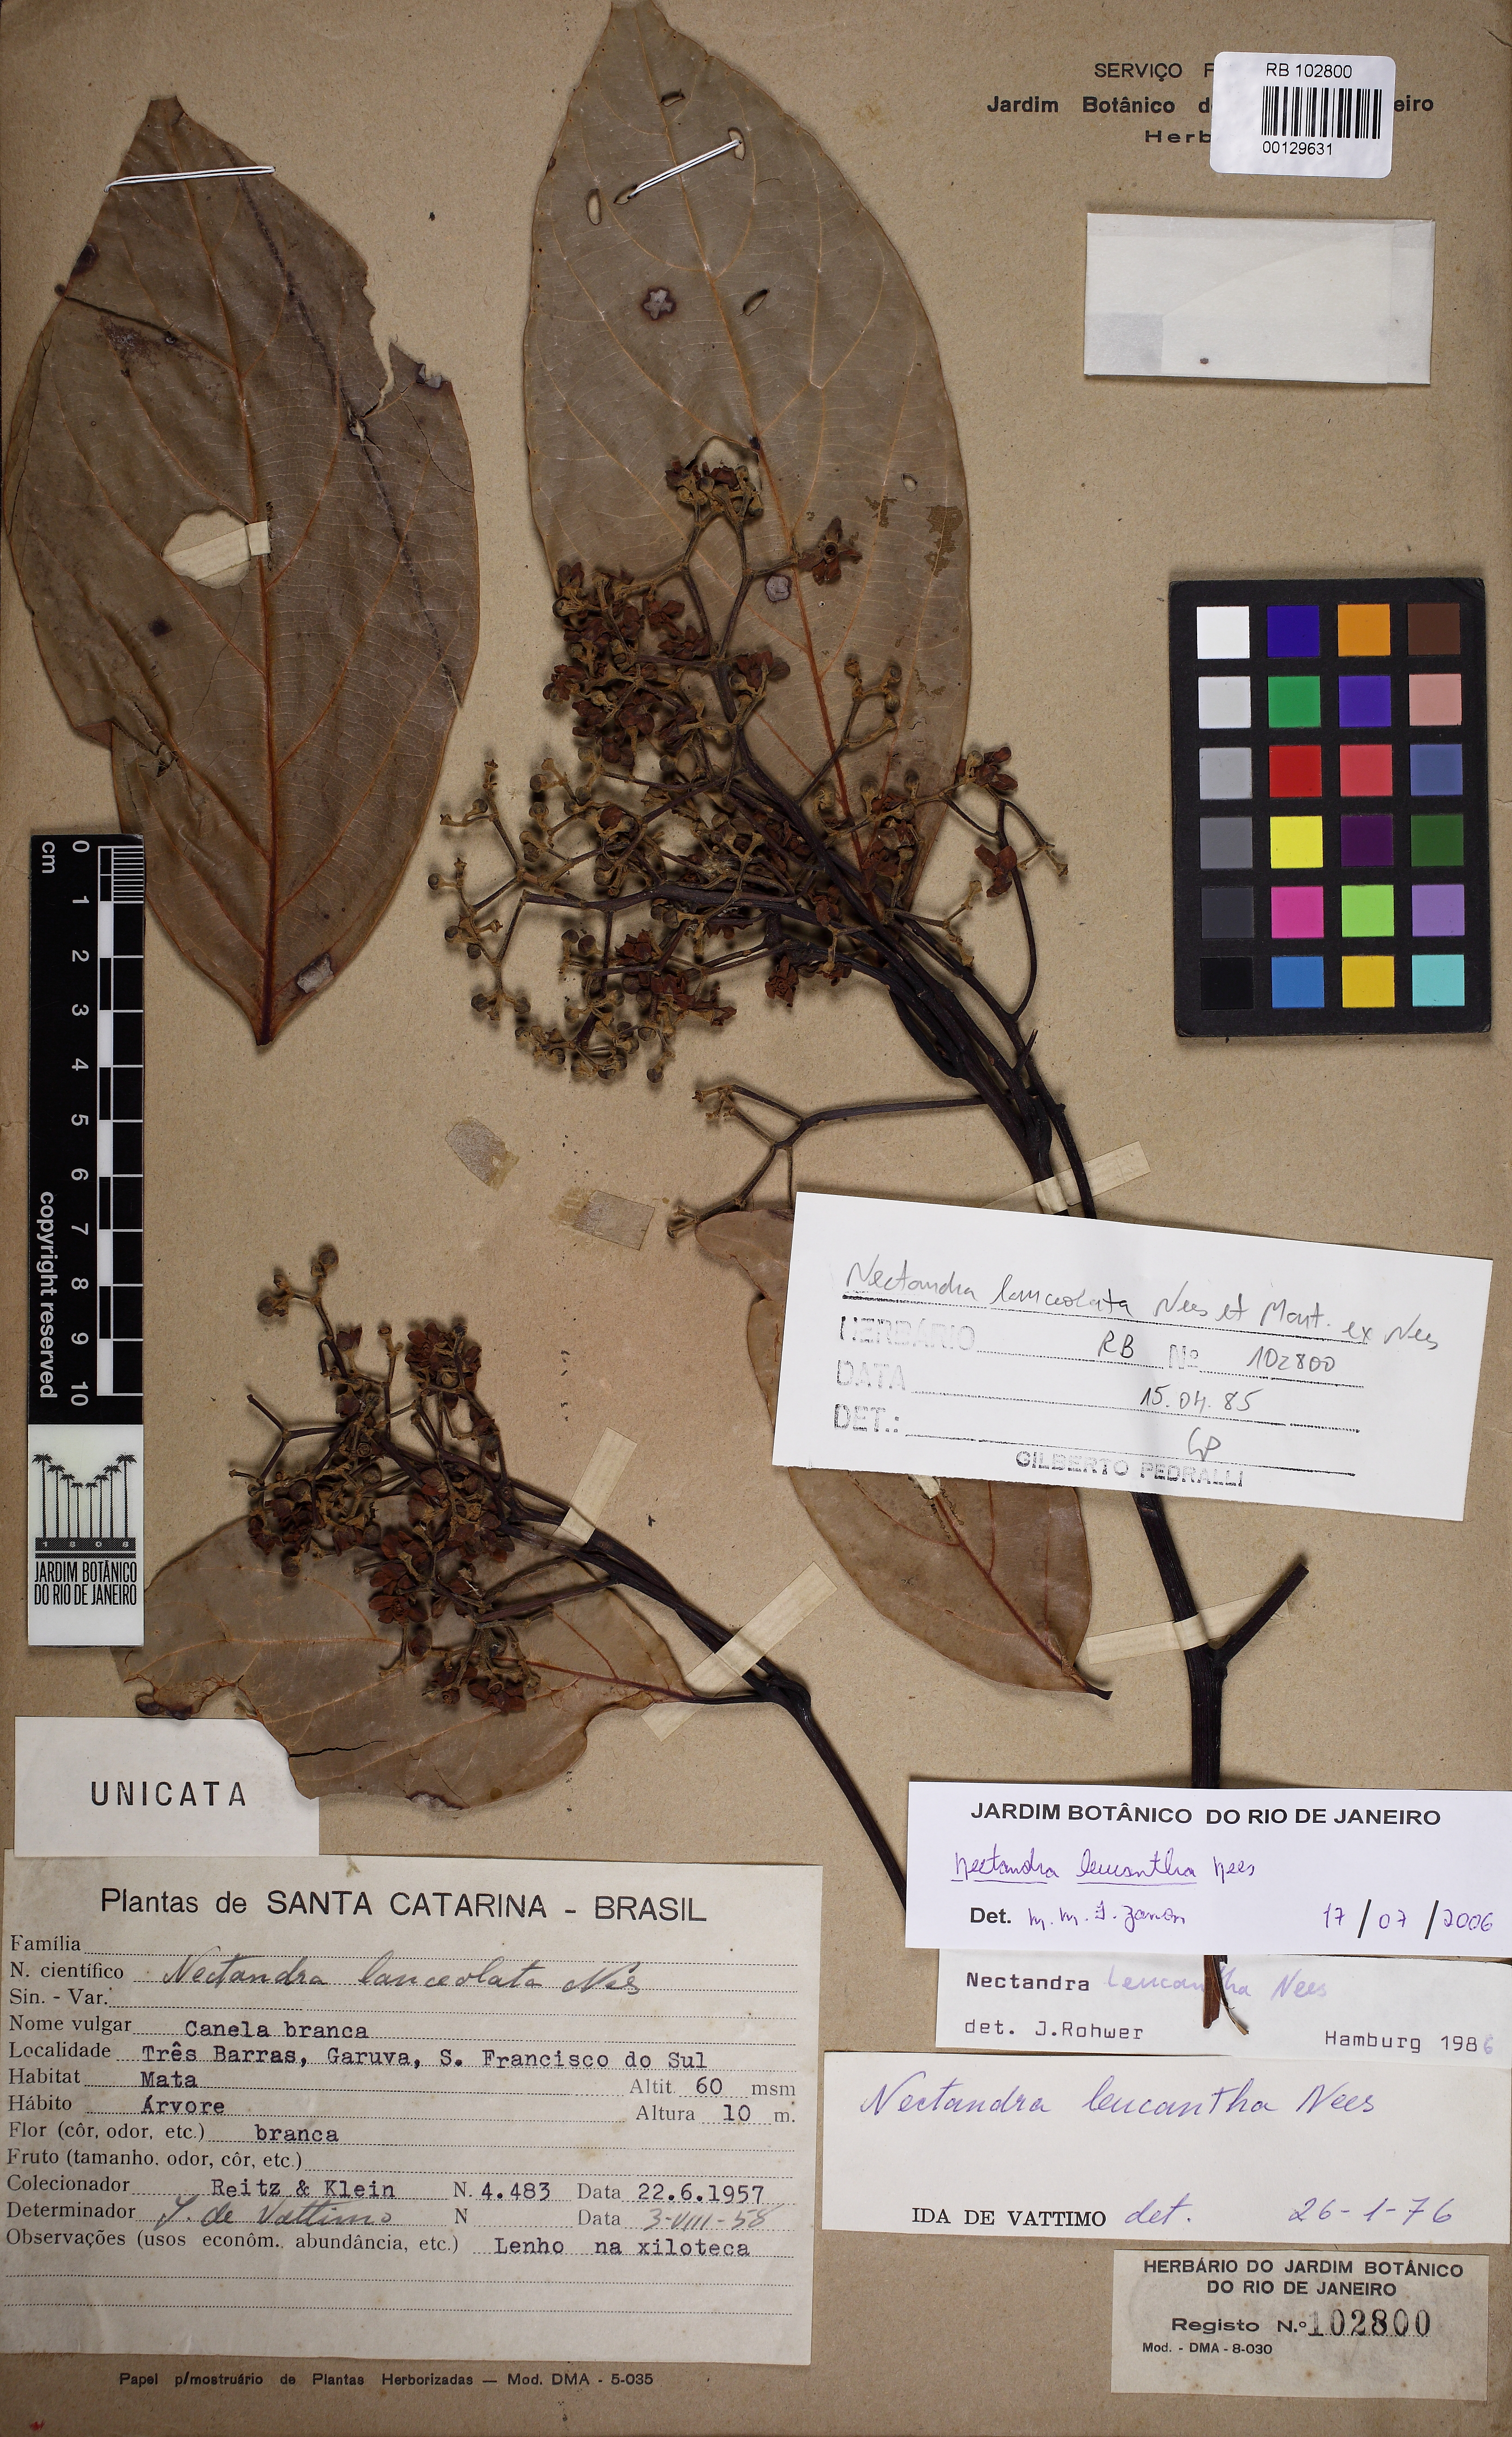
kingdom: Plantae
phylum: Tracheophyta
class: Magnoliopsida
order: Laurales
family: Lauraceae
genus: Nectandra
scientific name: Nectandra leucantha
